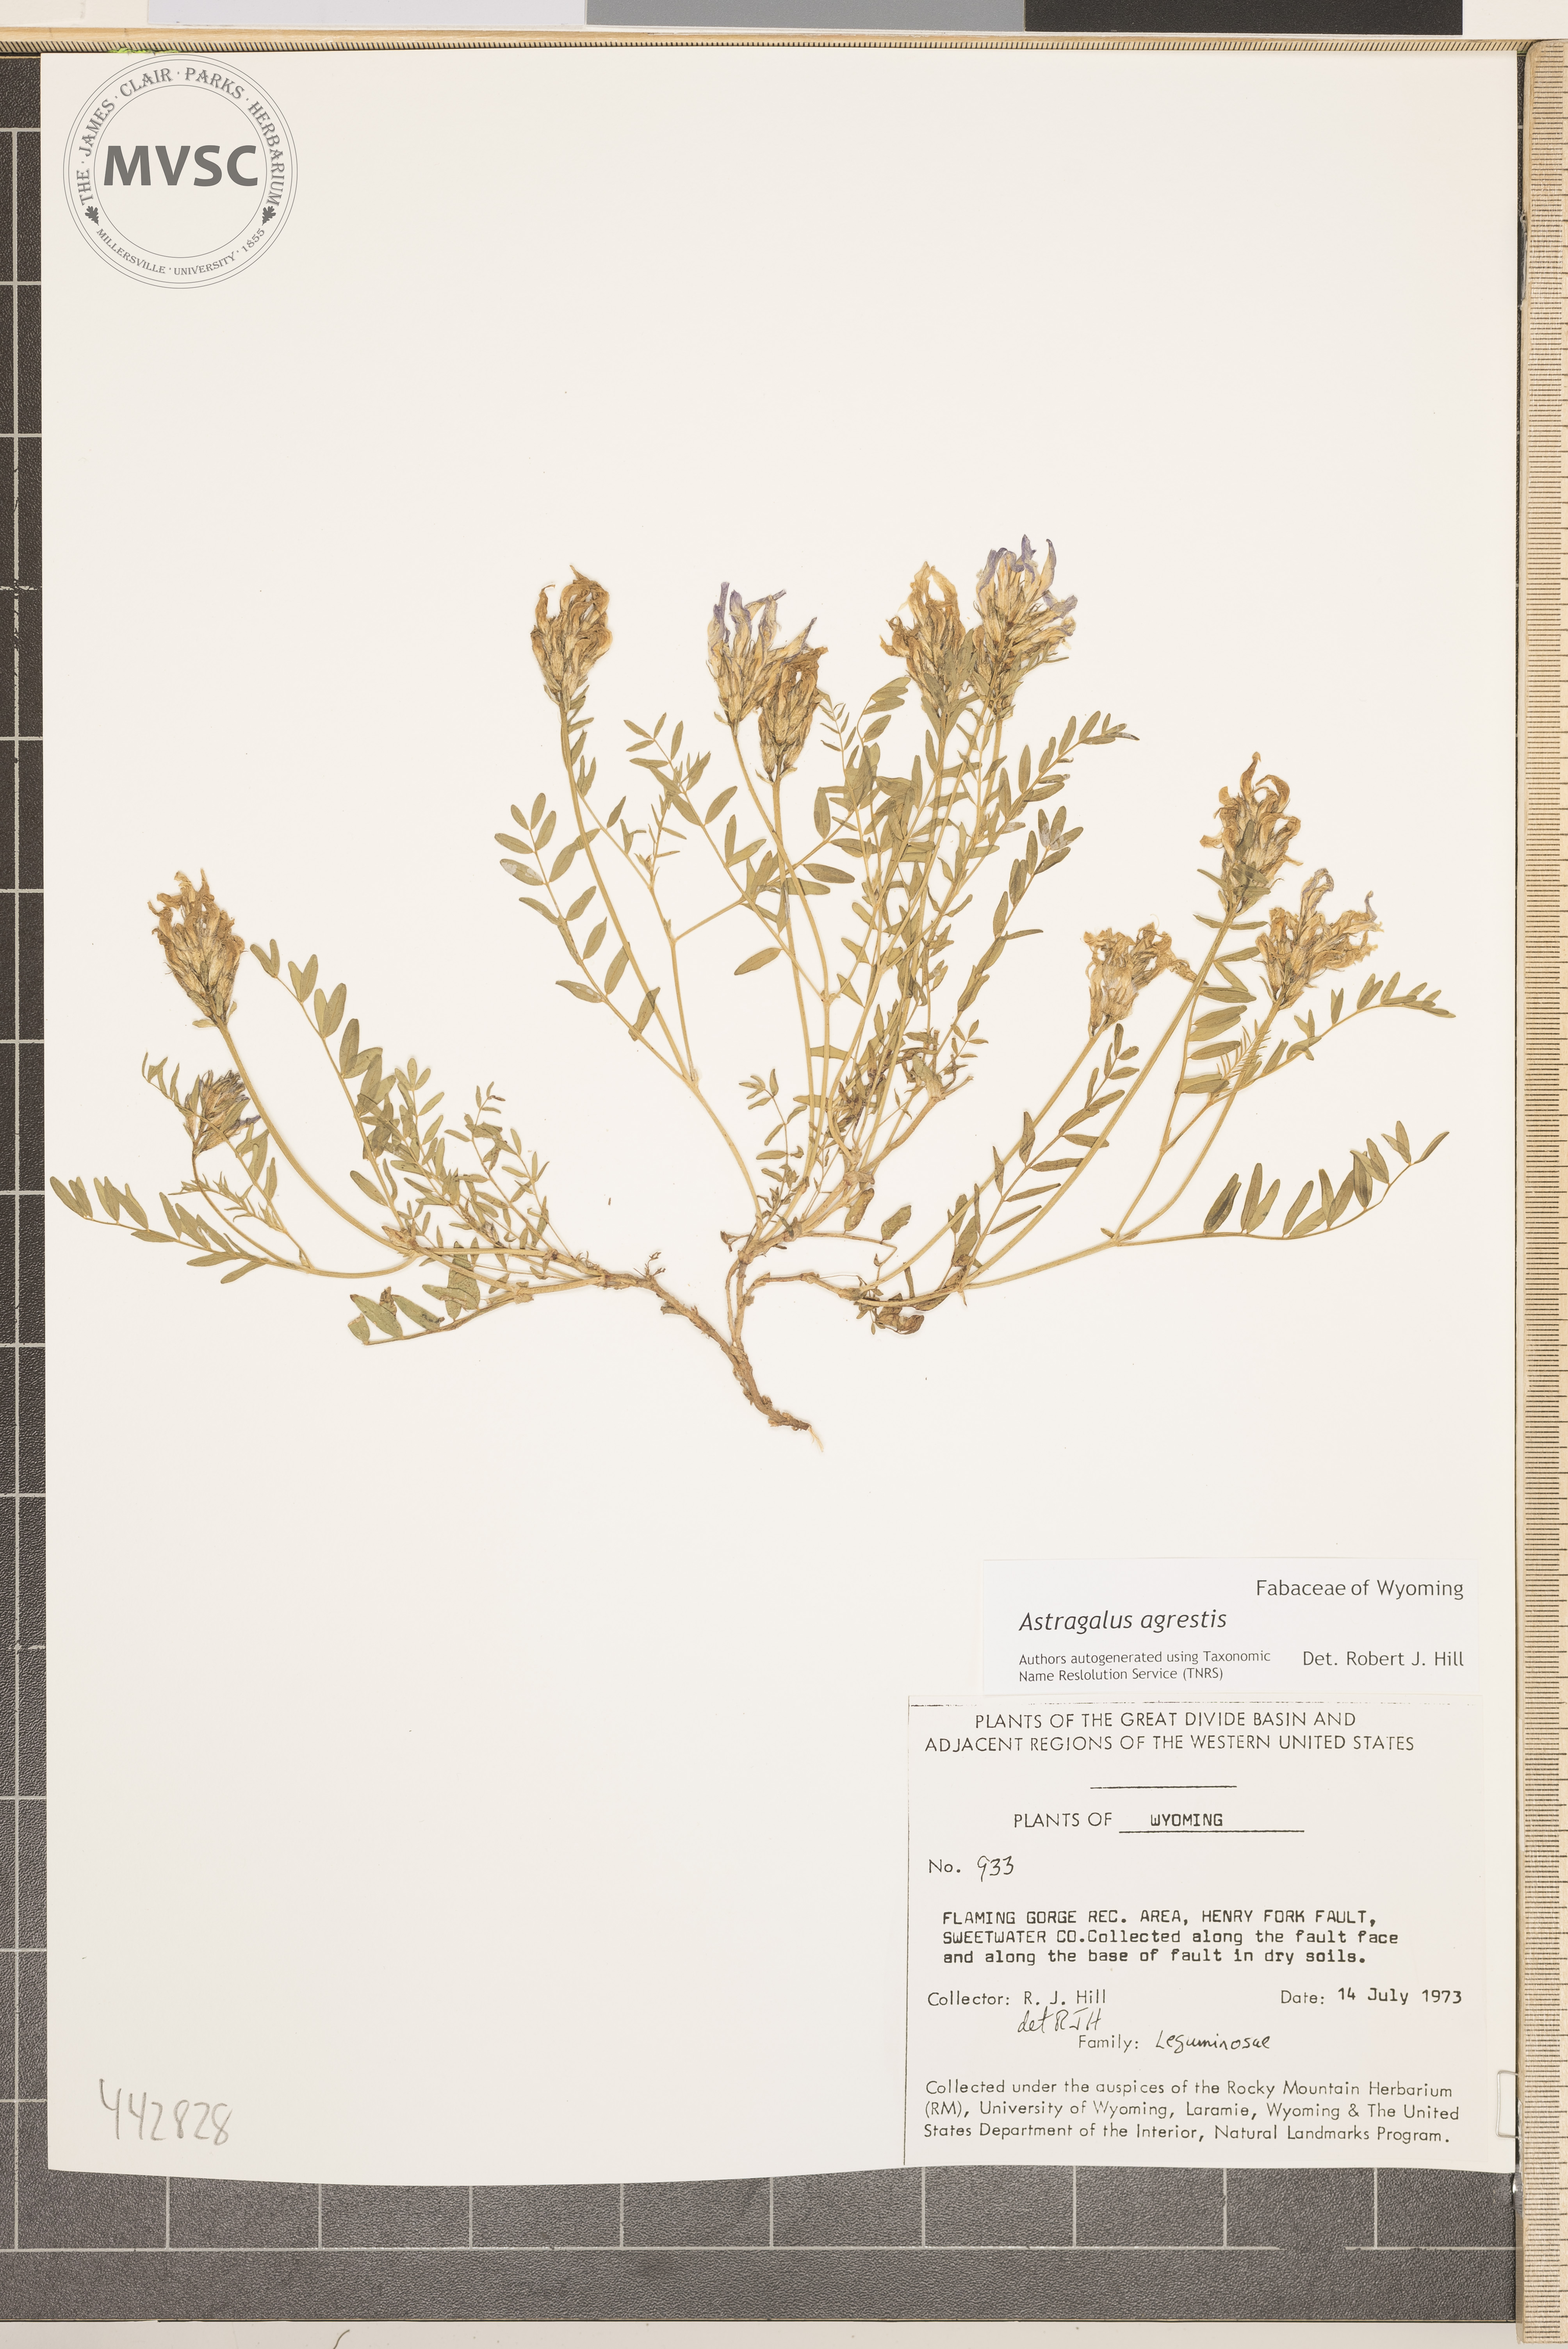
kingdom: Plantae
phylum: Tracheophyta
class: Magnoliopsida
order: Fabales
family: Fabaceae
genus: Astragalus
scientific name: Astragalus agrestis
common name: Field milk-vetch
